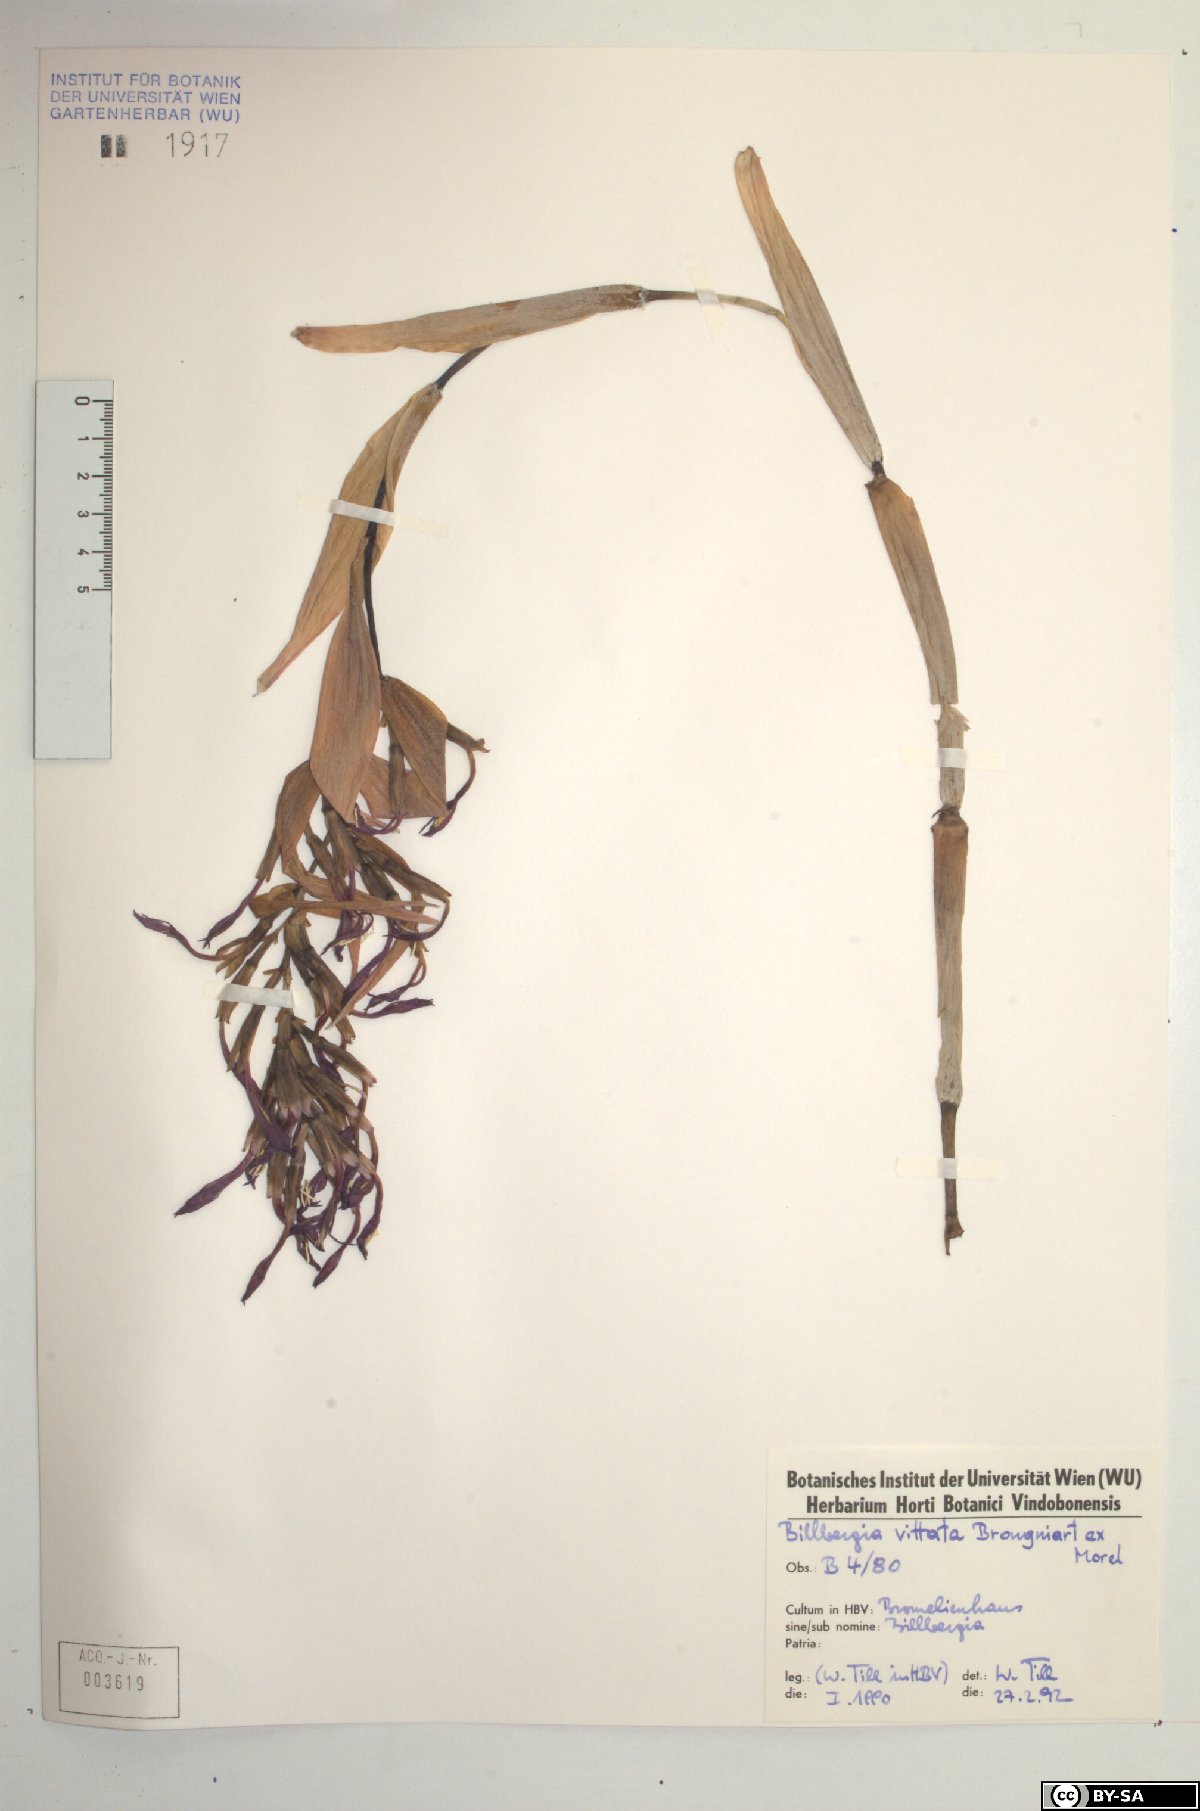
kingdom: Plantae
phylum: Tracheophyta
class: Liliopsida
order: Poales
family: Bromeliaceae
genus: Billbergia
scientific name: Billbergia vittata
